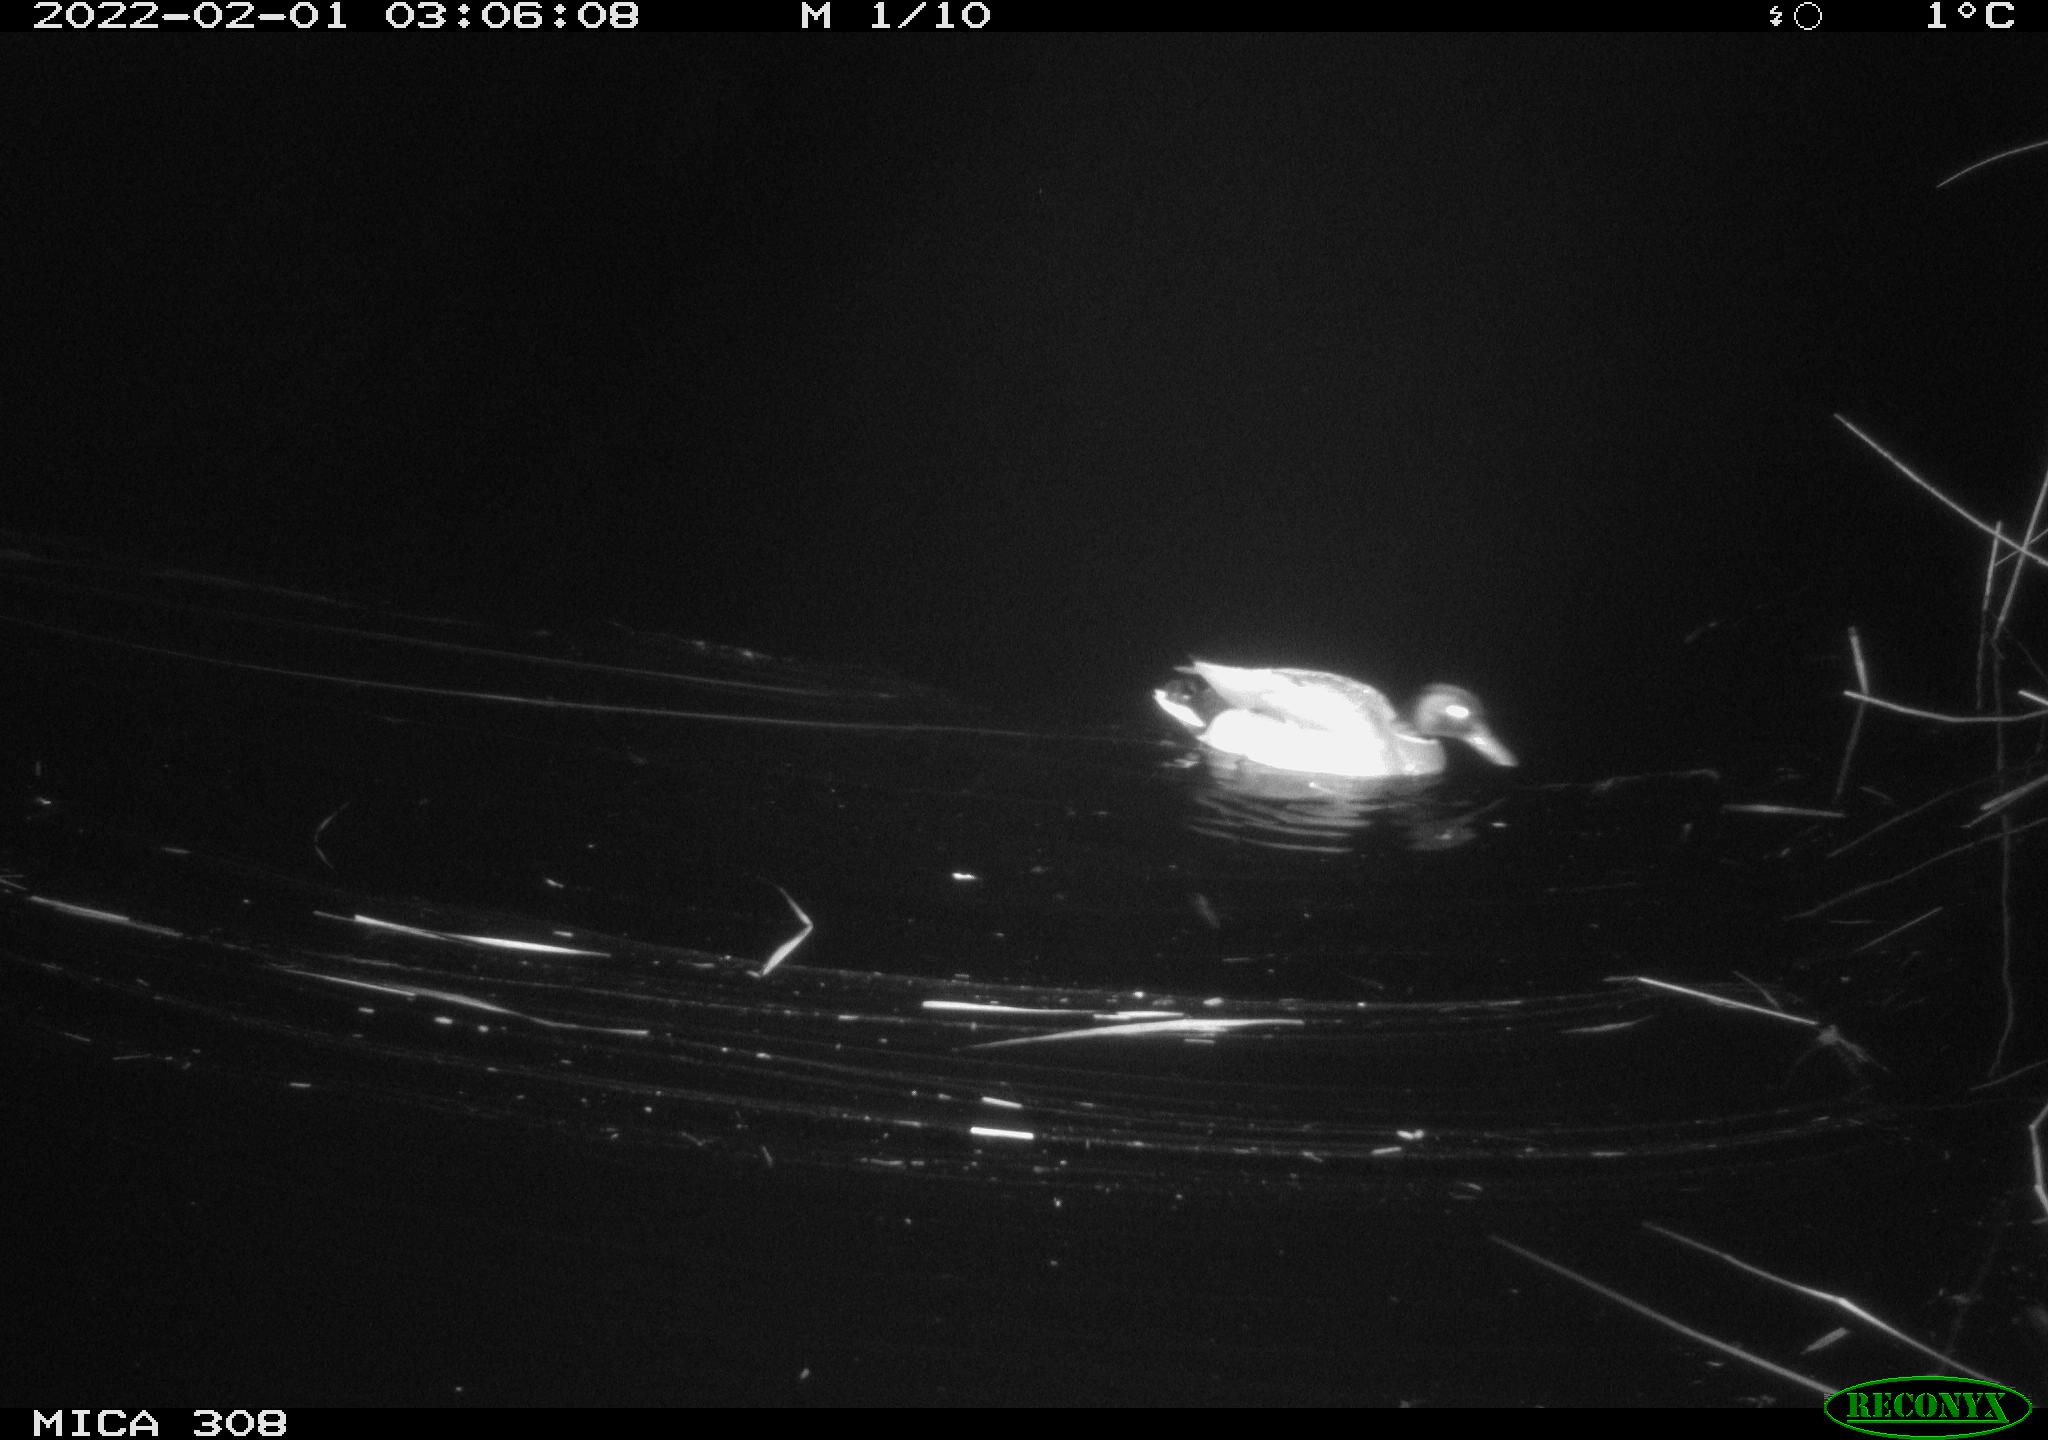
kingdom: Animalia
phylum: Chordata
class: Aves
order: Anseriformes
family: Anatidae
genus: Anas
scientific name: Anas
